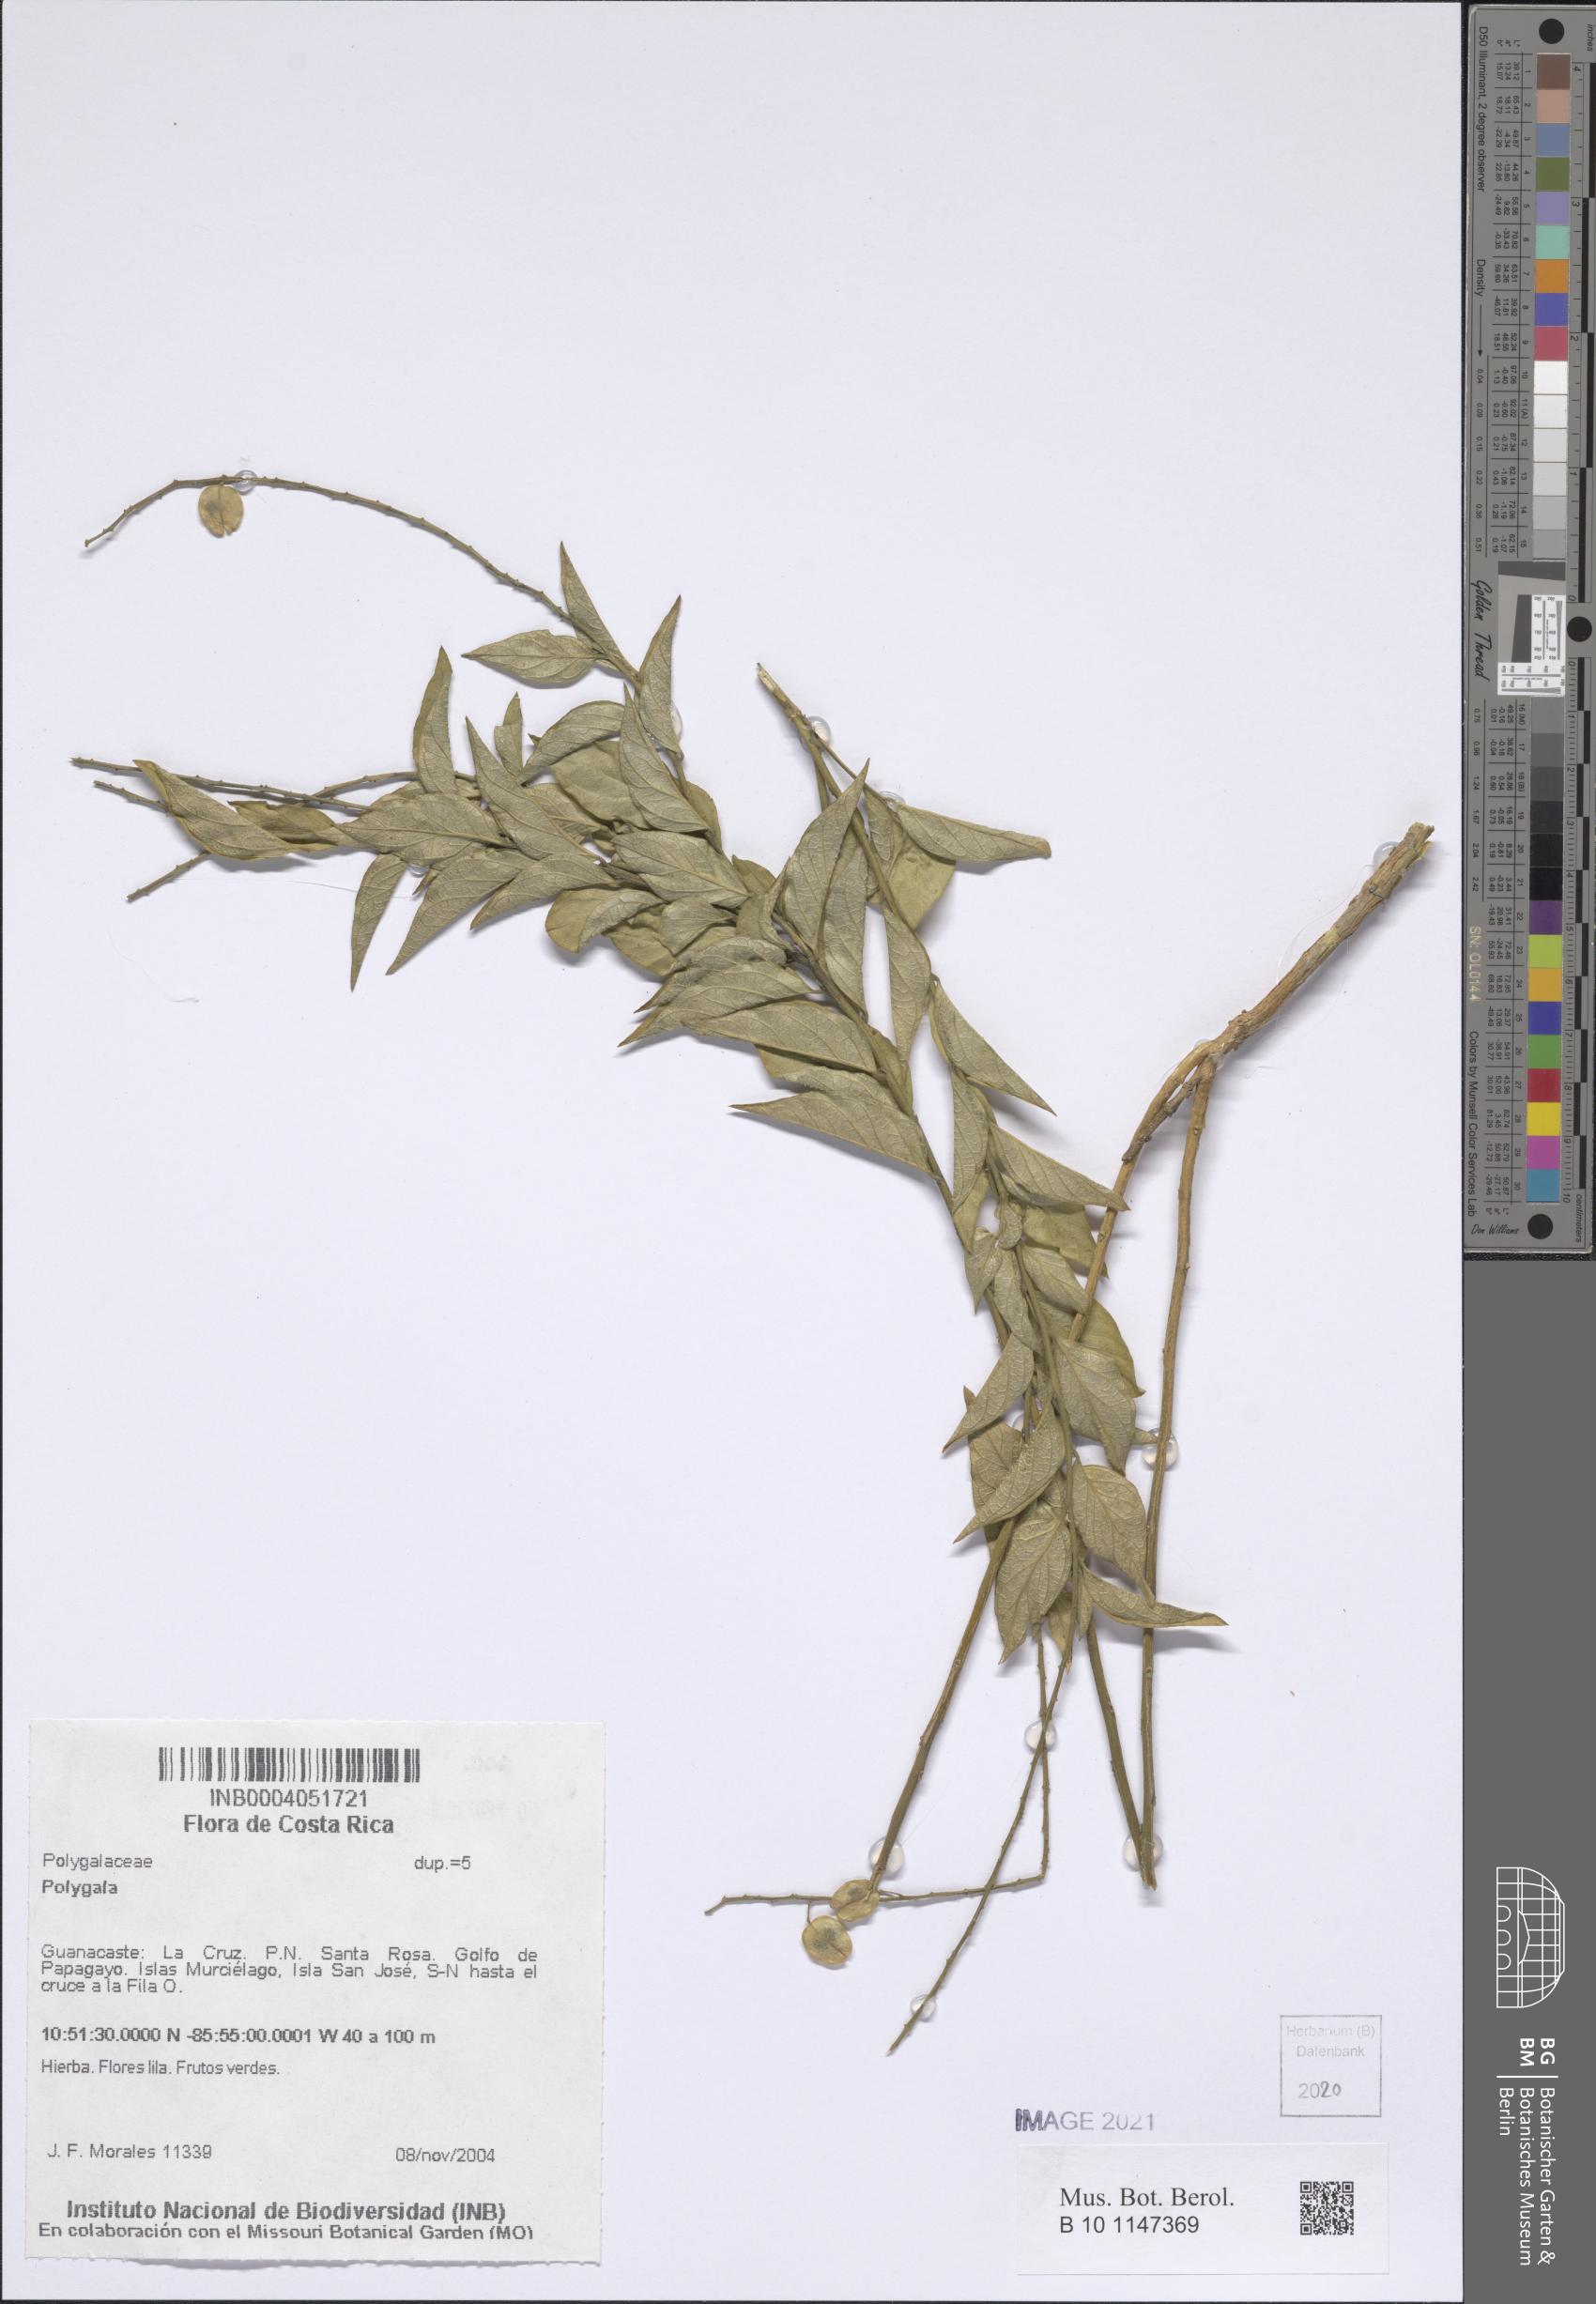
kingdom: Plantae
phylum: Tracheophyta
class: Magnoliopsida
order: Fabales
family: Polygalaceae
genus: Polygala
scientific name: Polygala
